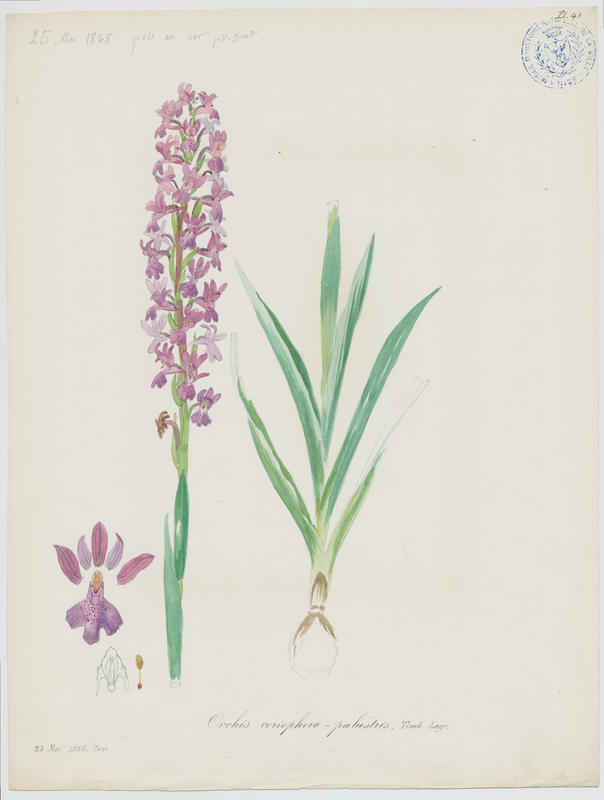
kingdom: Plantae
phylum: Tracheophyta
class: Liliopsida
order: Asparagales
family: Orchidaceae
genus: Anacamptis
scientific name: Anacamptis timbali
